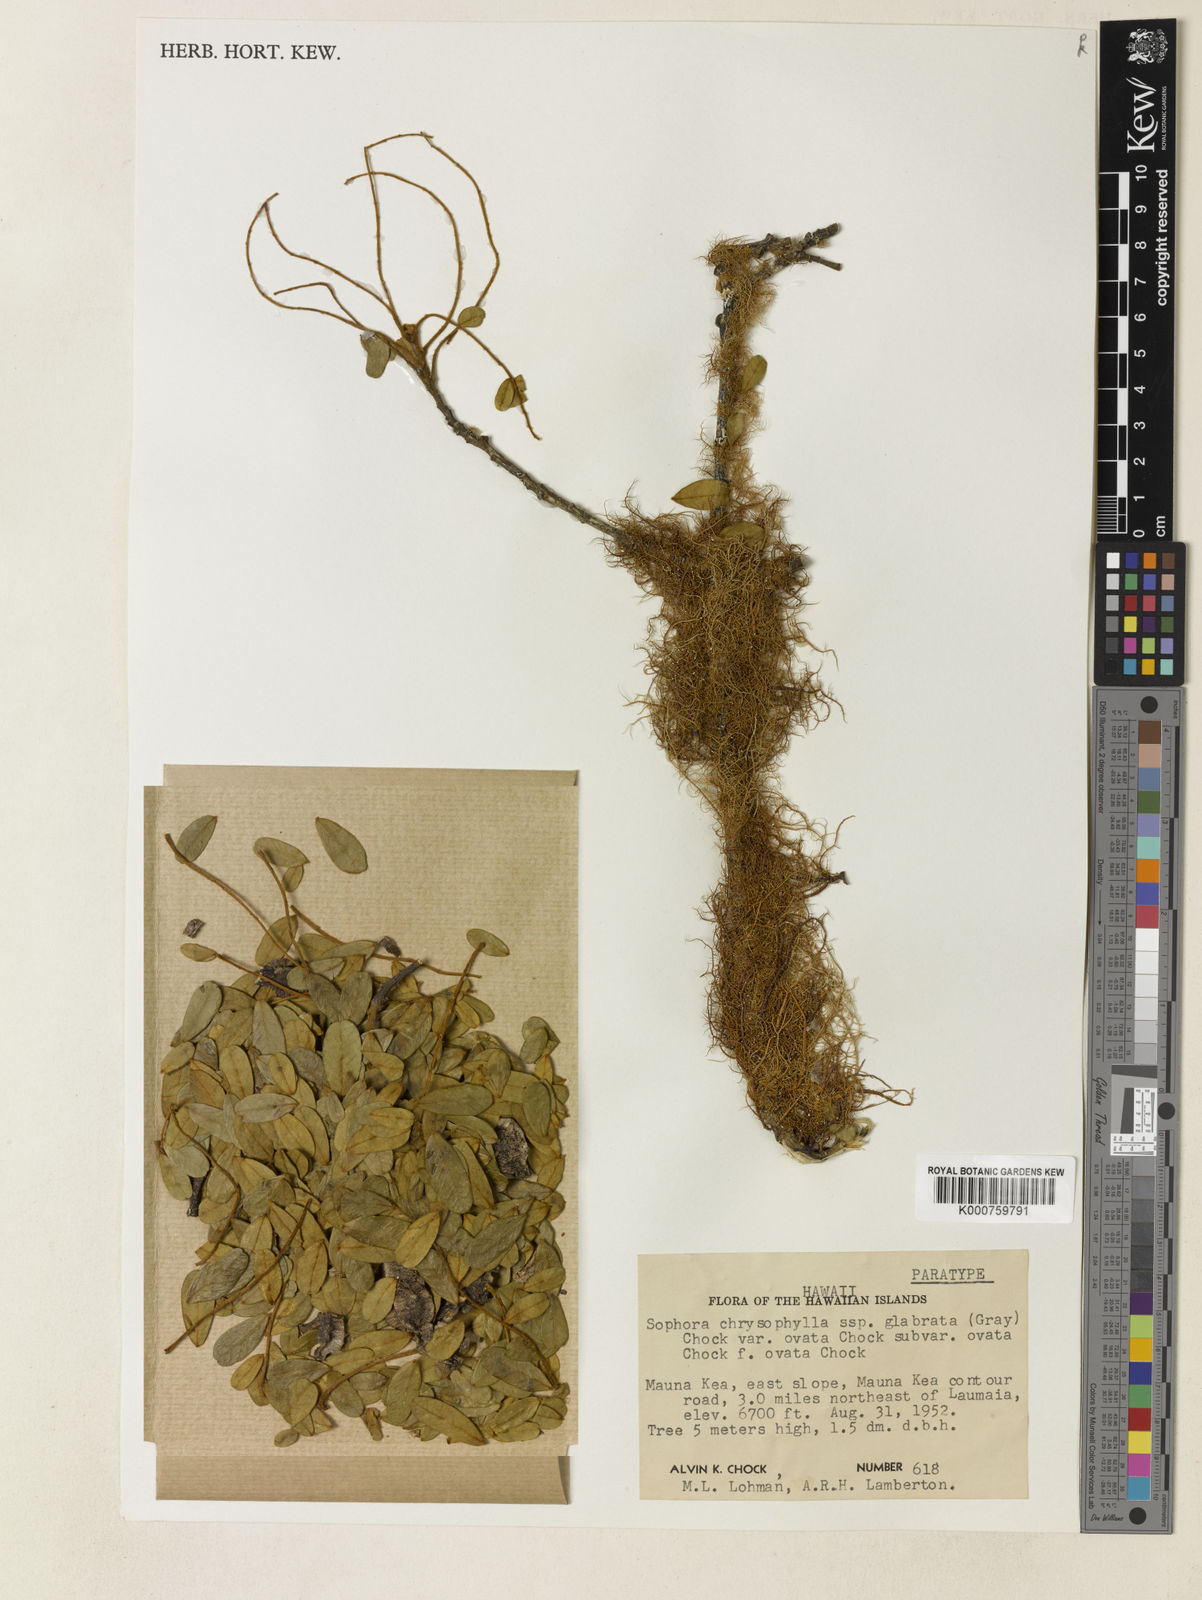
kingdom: Plantae
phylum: Tracheophyta
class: Magnoliopsida
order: Fabales
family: Fabaceae
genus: Sophora
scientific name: Sophora chrysophylla
